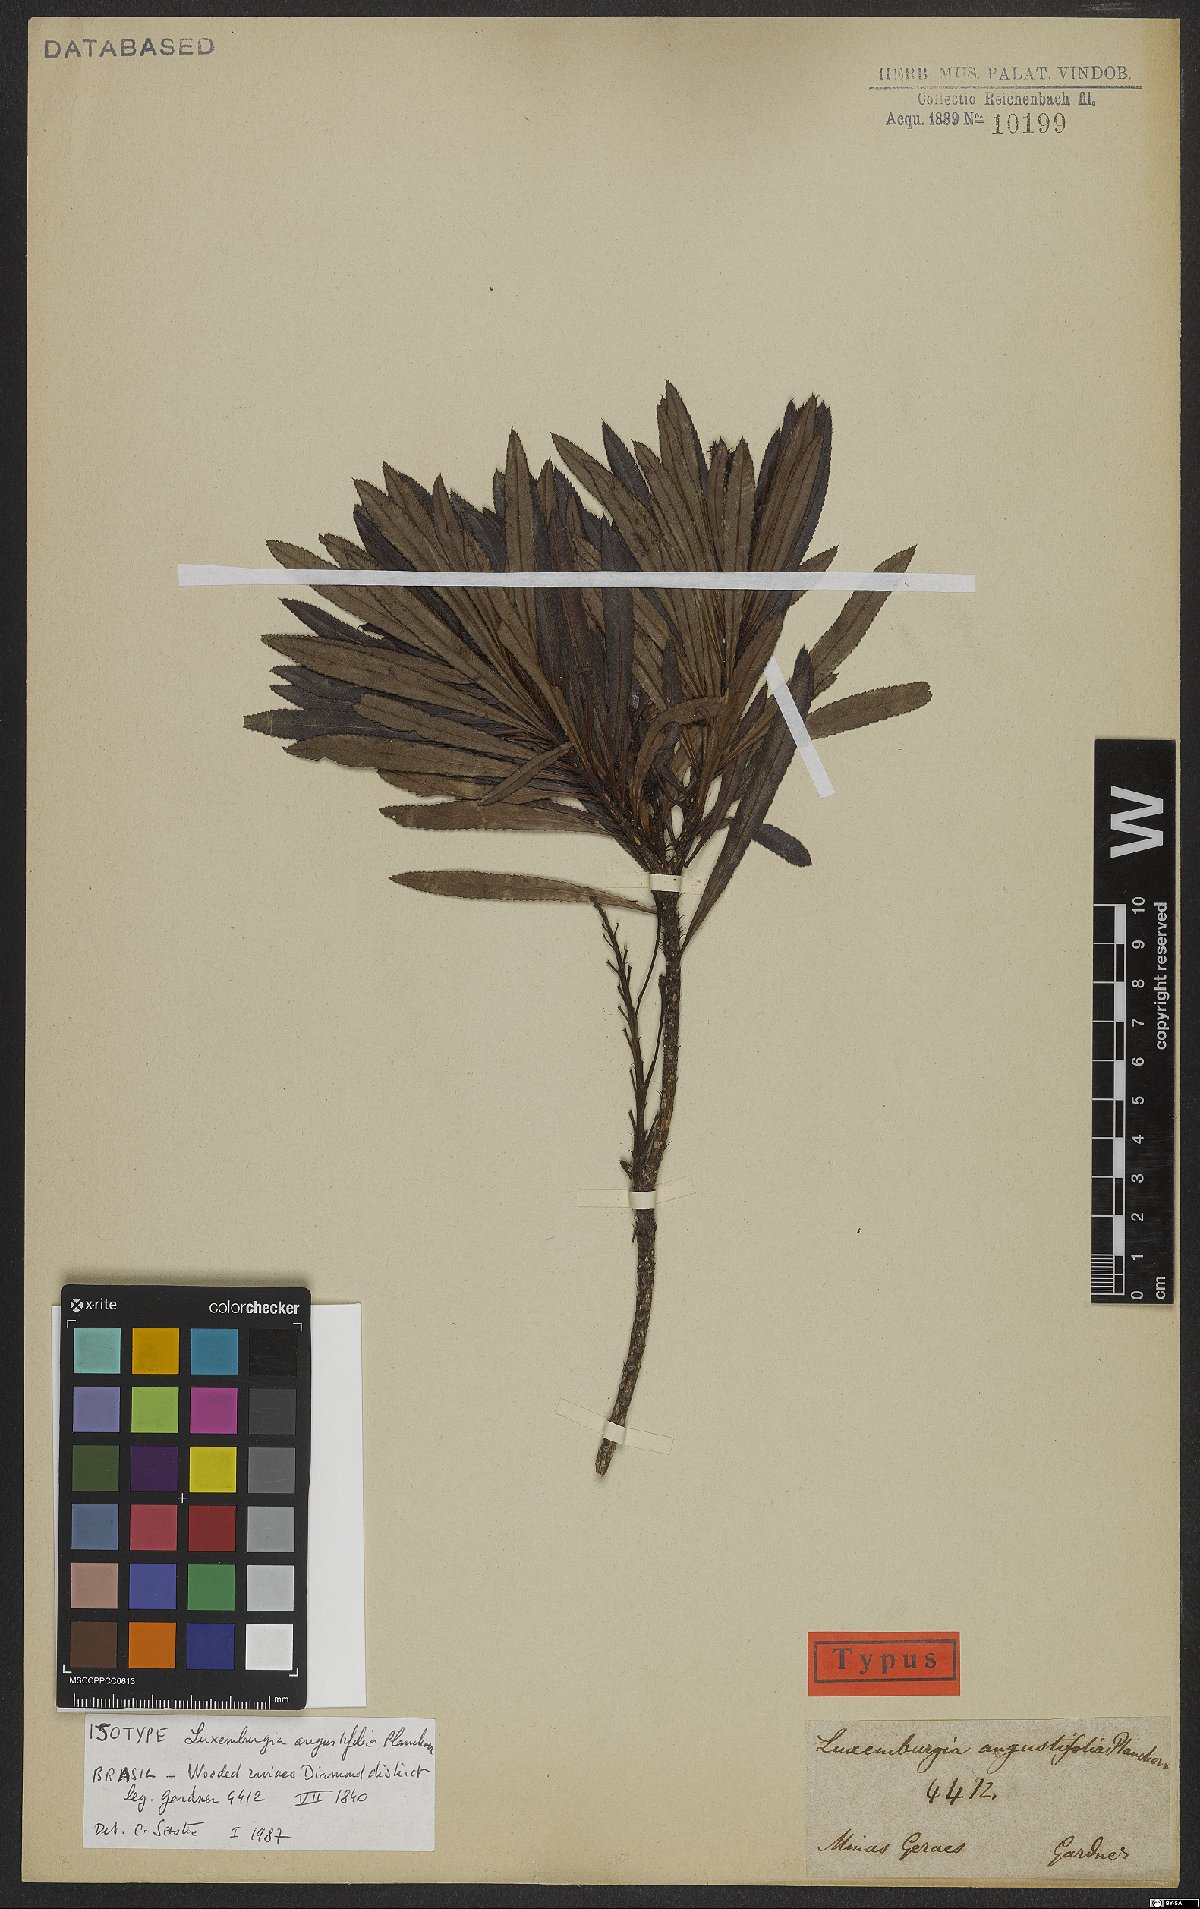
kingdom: Plantae
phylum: Tracheophyta
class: Magnoliopsida
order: Malpighiales
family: Ochnaceae
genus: Luxemburgia
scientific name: Luxemburgia angustifolia
